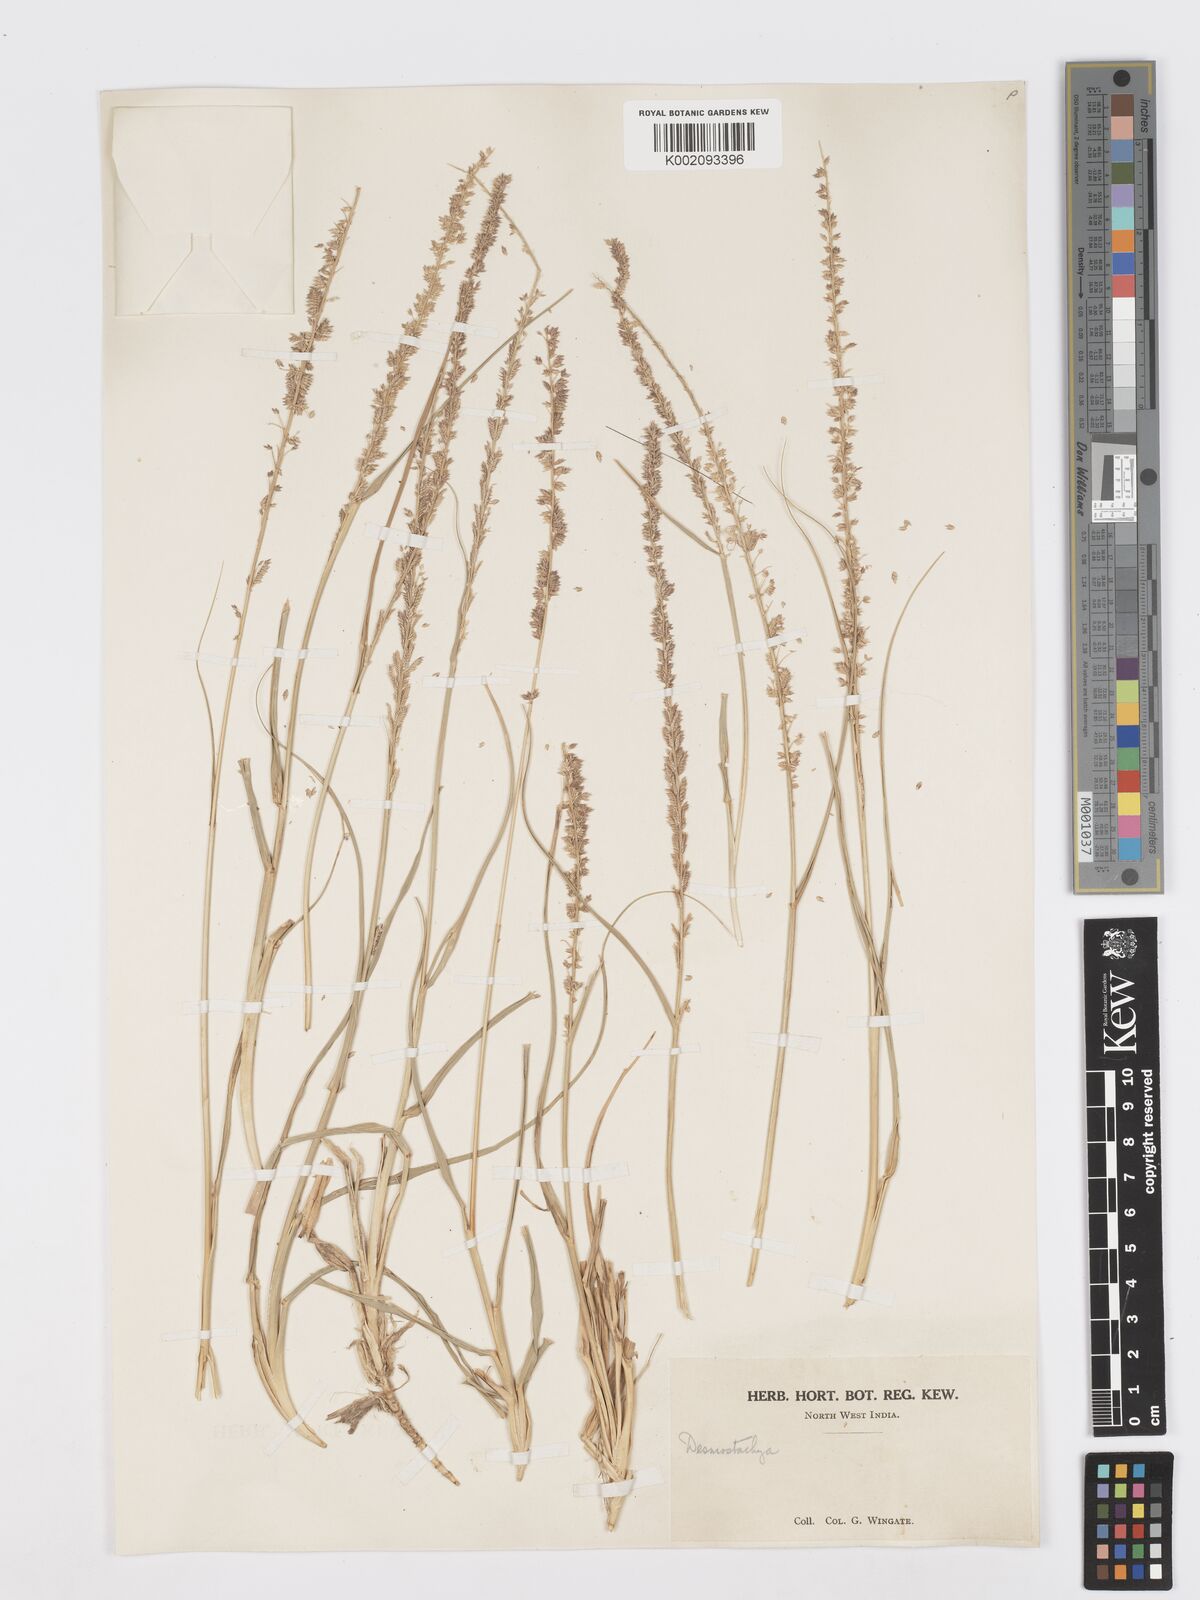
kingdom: Plantae
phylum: Tracheophyta
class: Liliopsida
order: Poales
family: Poaceae
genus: Desmostachya
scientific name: Desmostachya bipinnata
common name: Crowfoot grass
